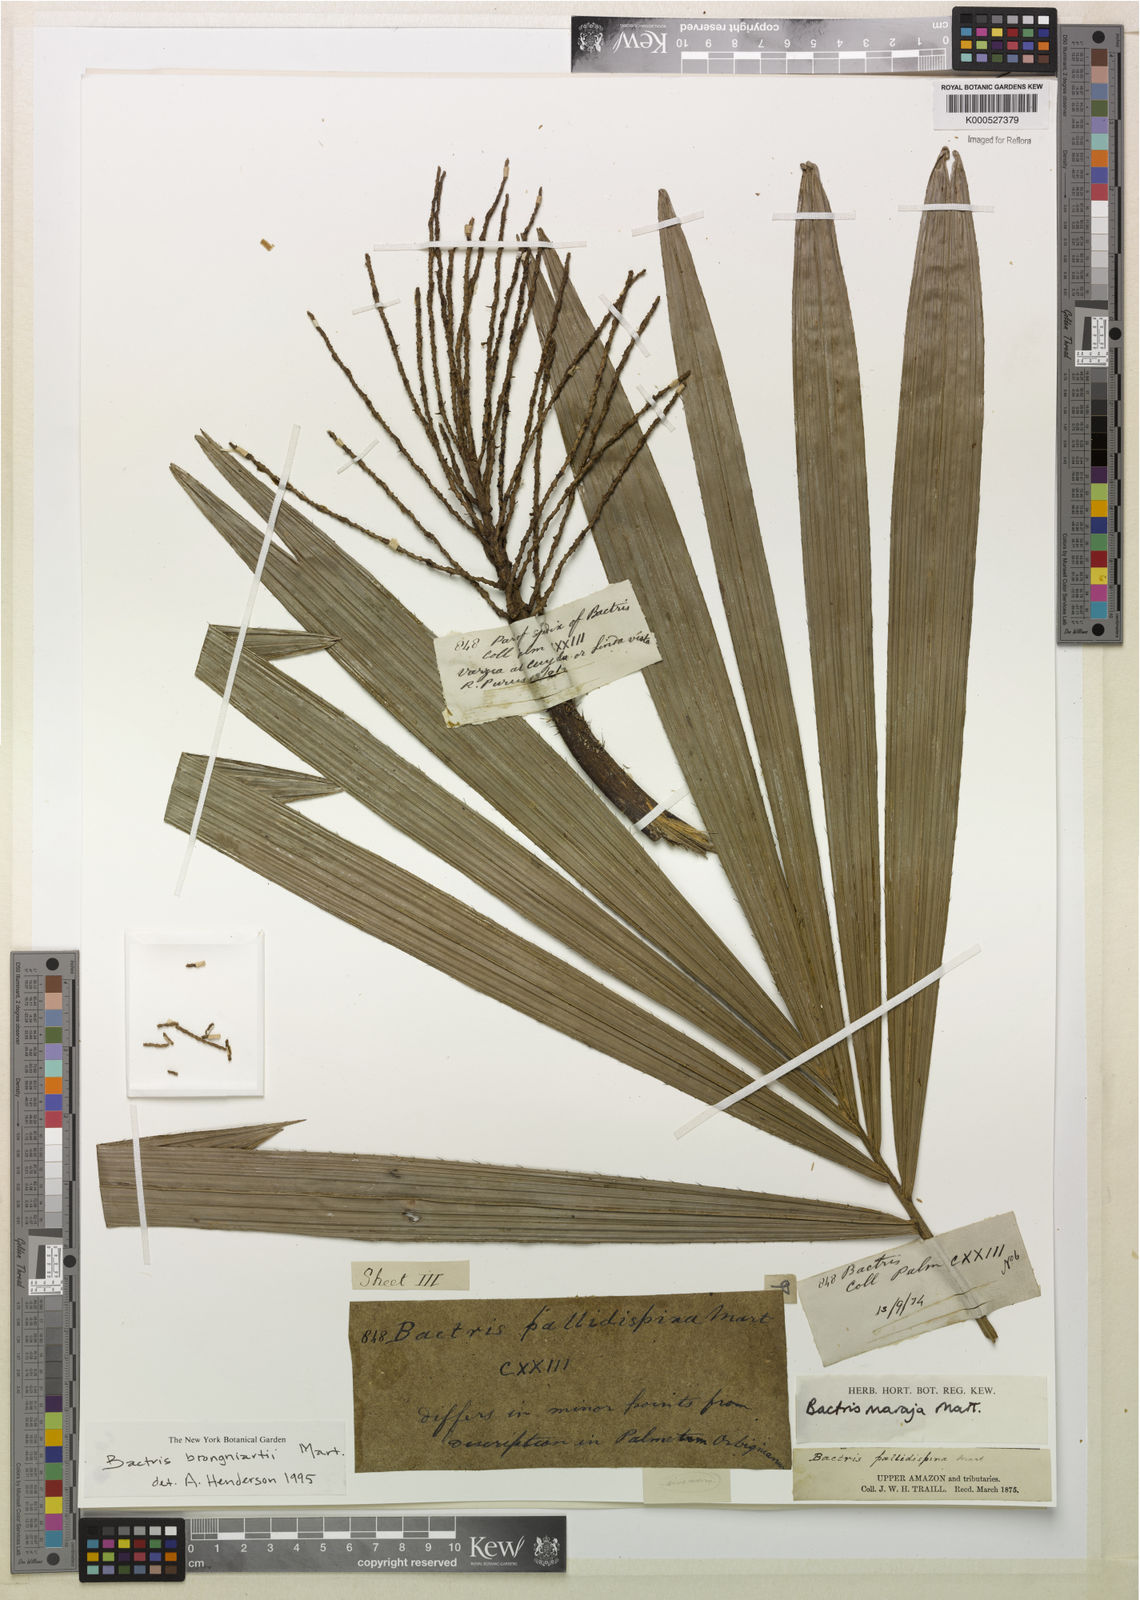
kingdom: Plantae
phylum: Tracheophyta
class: Liliopsida
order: Arecales
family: Arecaceae
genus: Bactris
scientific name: Bactris brongniartii
